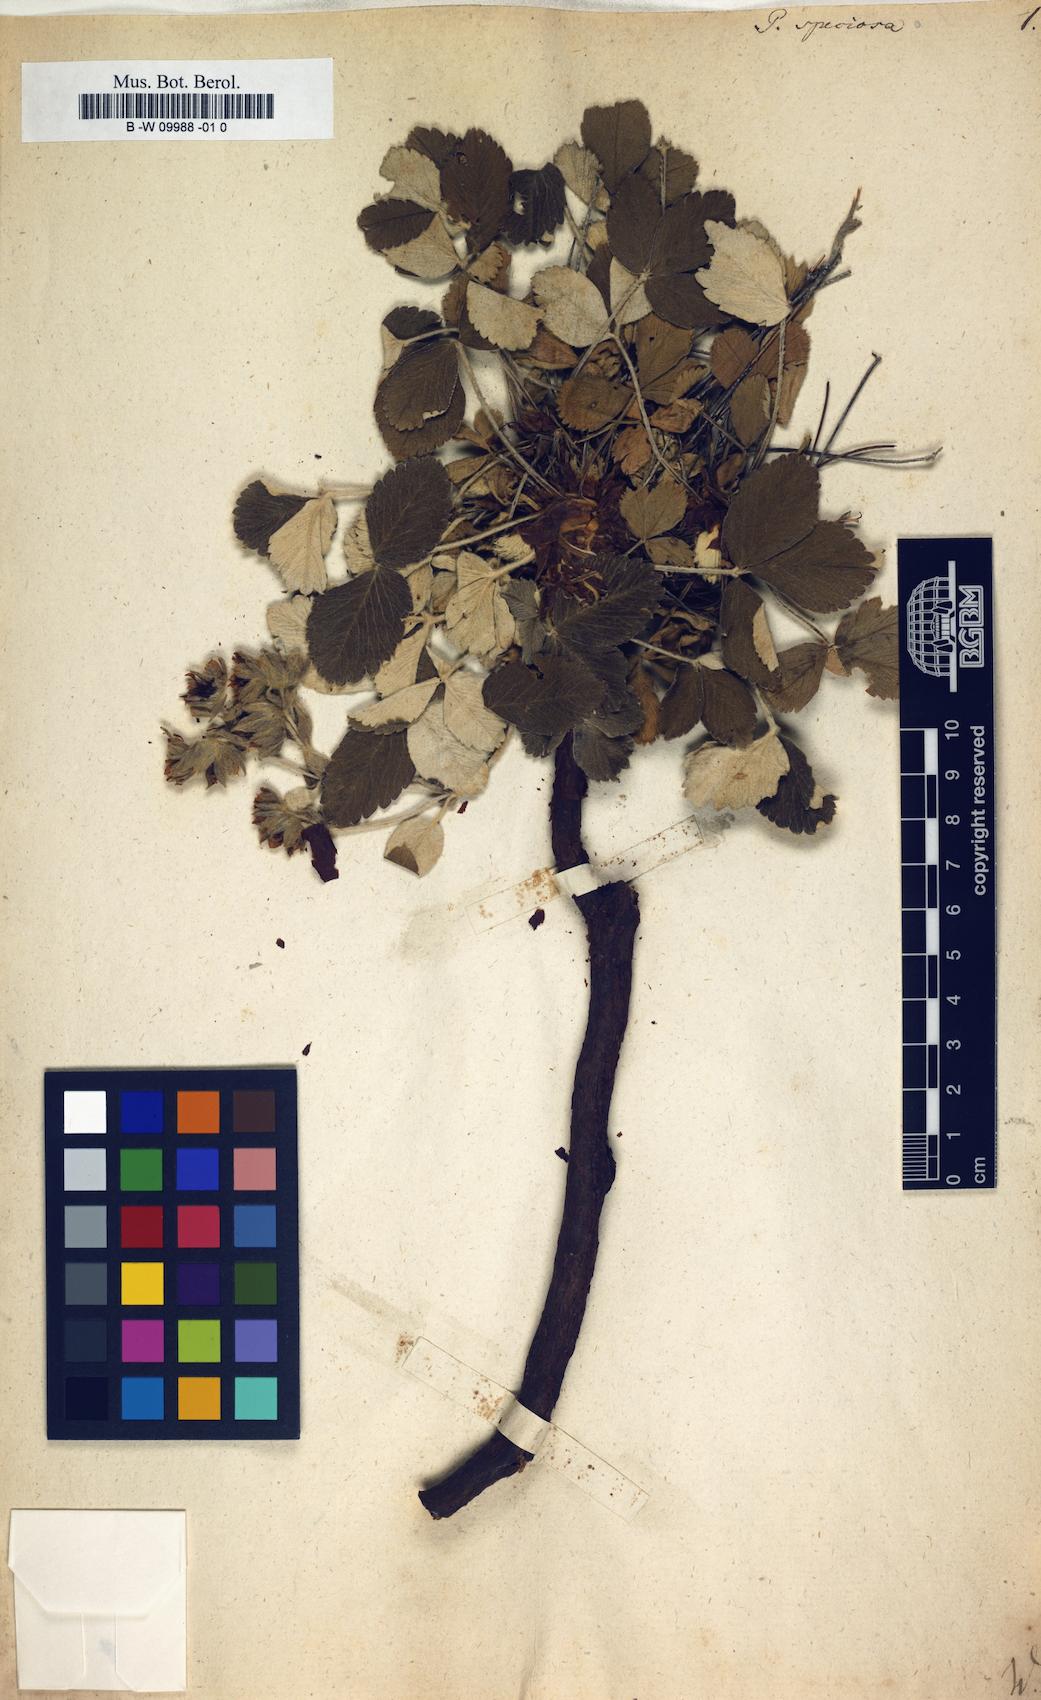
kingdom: Plantae
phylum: Tracheophyta
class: Magnoliopsida
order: Rosales
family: Rosaceae
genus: Potentilla
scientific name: Potentilla speciosa
